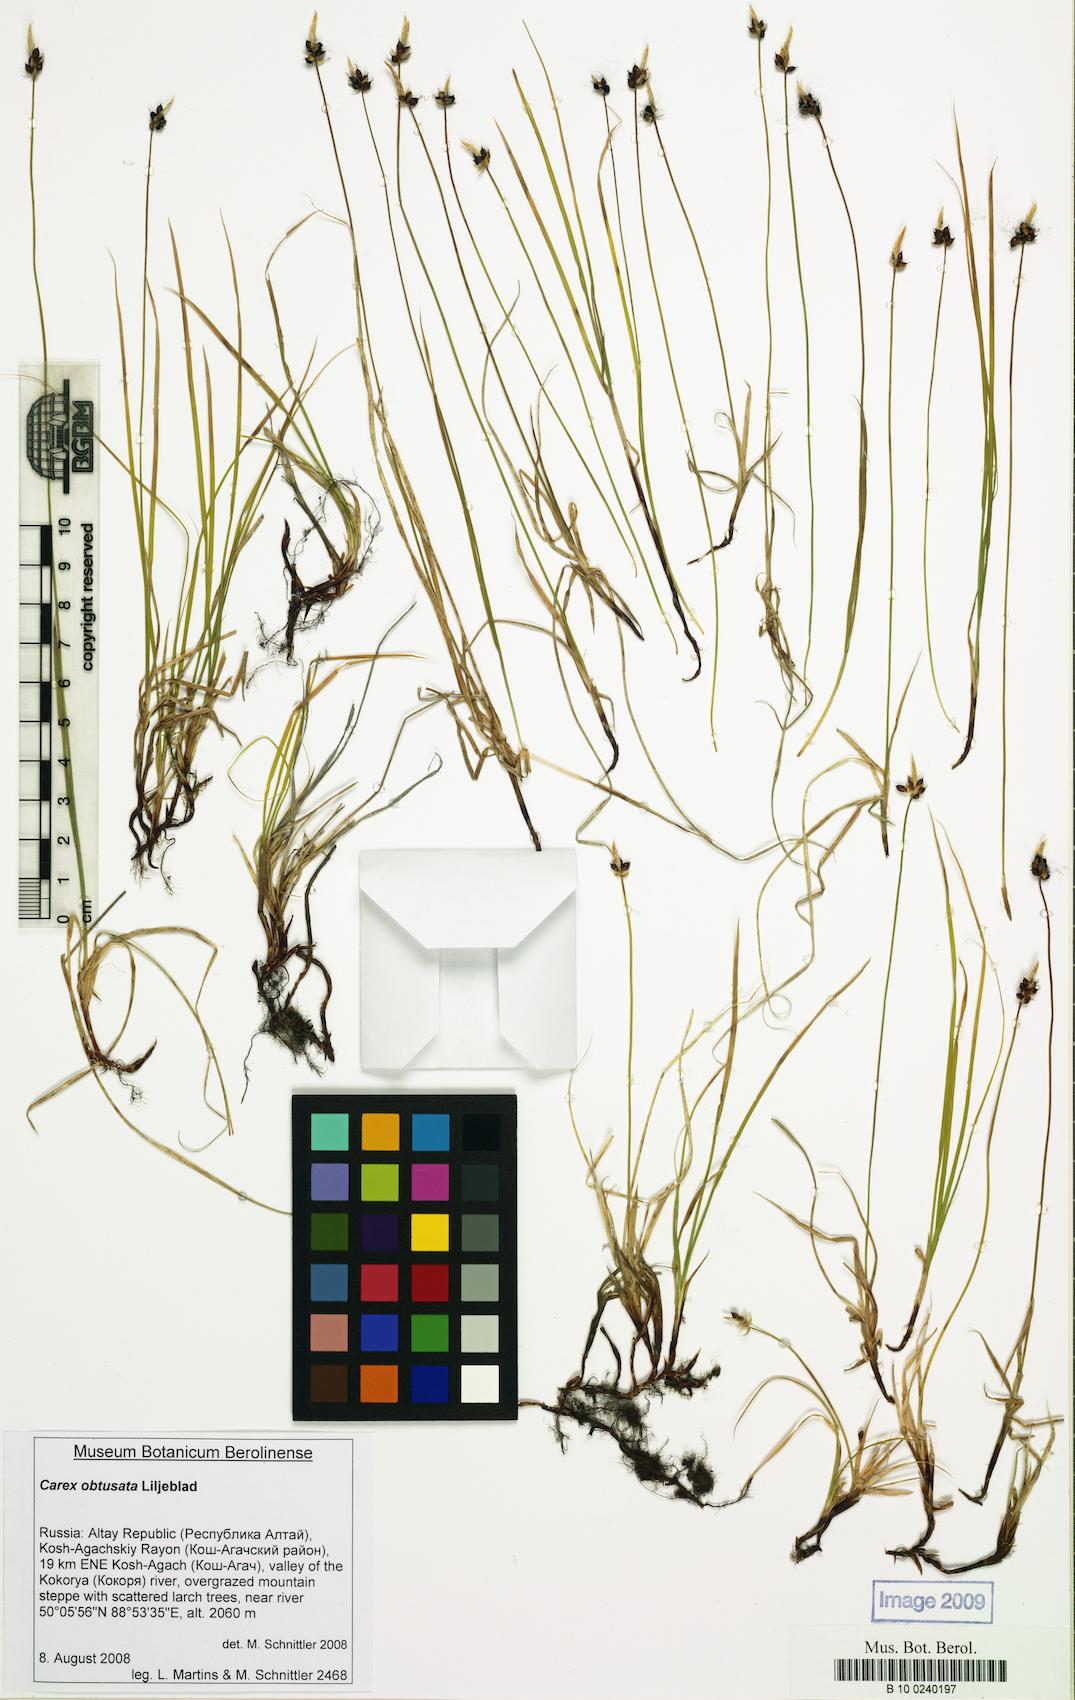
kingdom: Plantae
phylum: Tracheophyta
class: Liliopsida
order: Poales
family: Cyperaceae
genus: Carex
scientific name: Carex obtusata
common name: Blunt sedge
